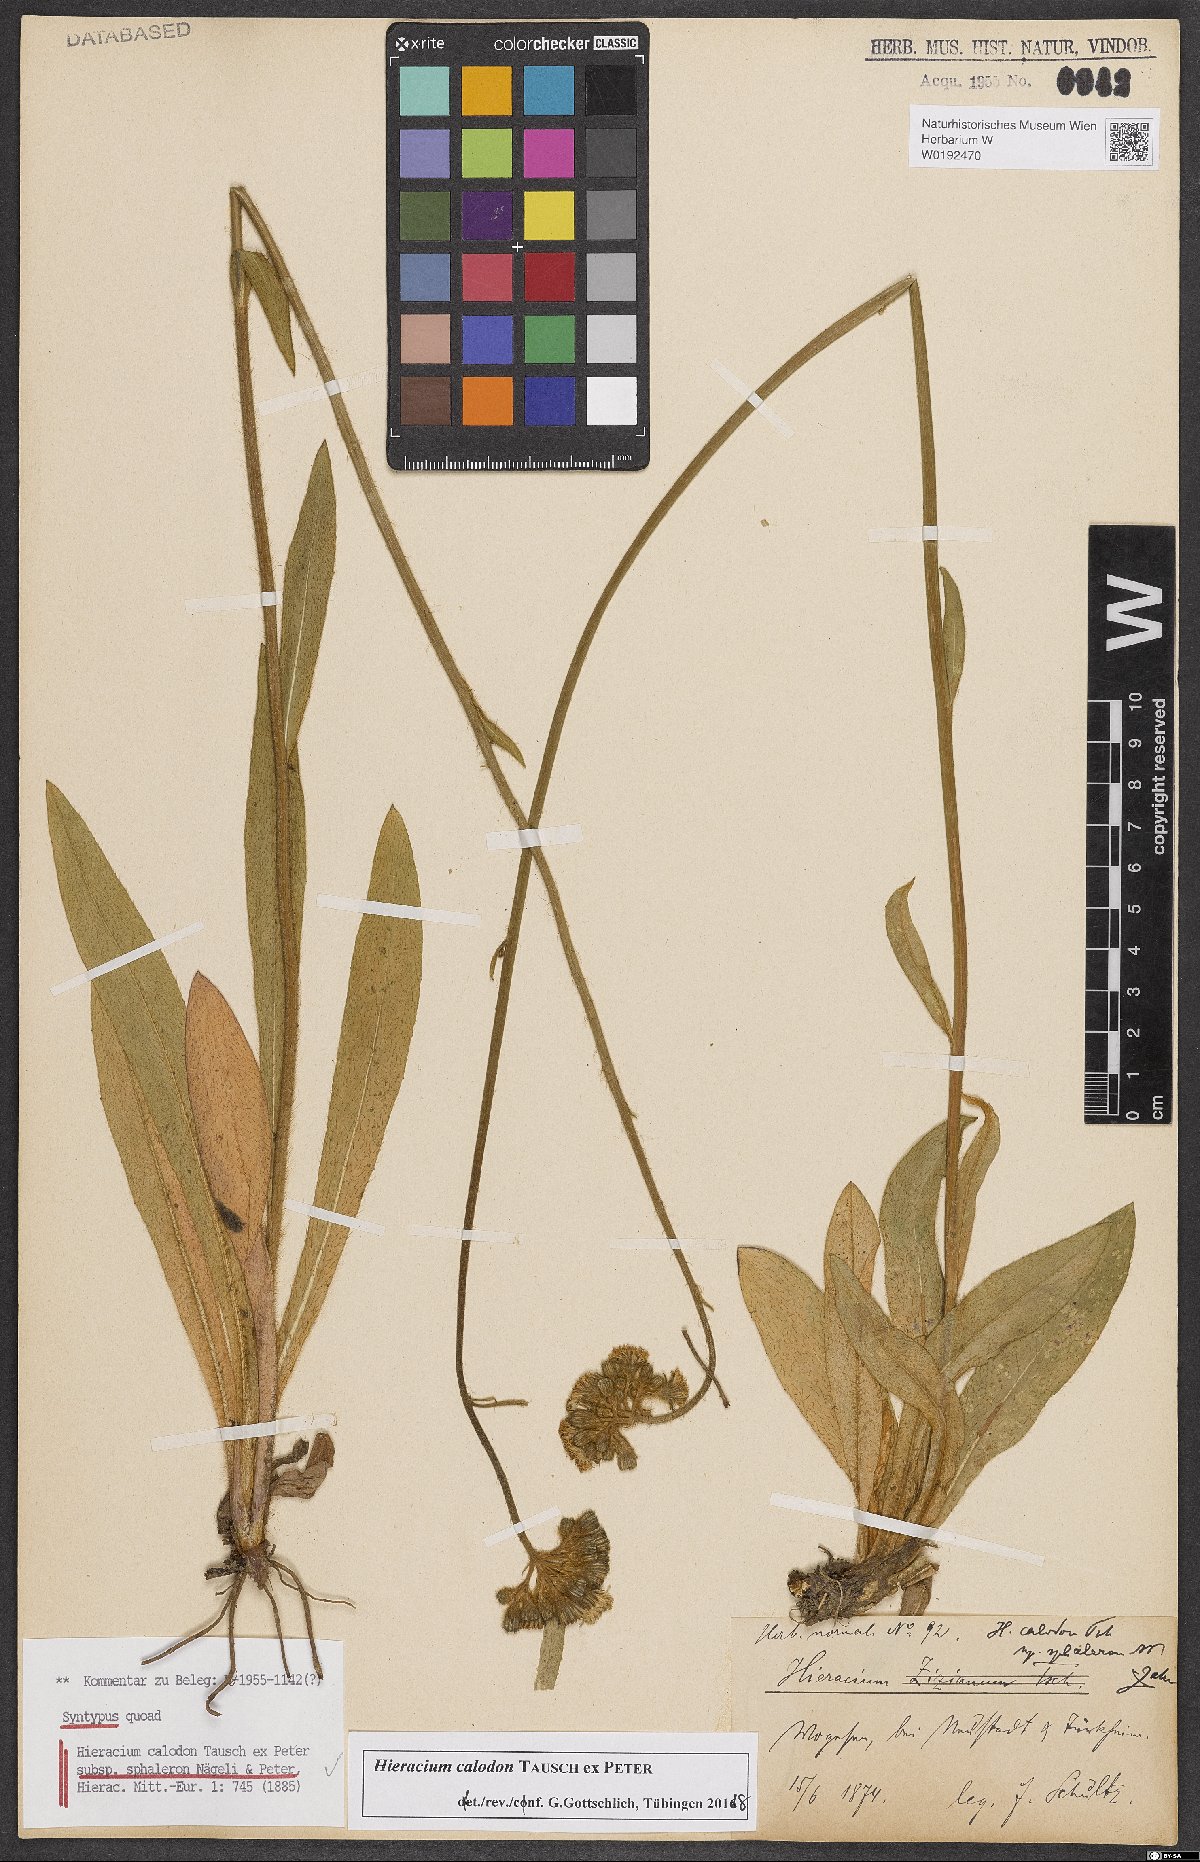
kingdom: Plantae
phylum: Tracheophyta
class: Magnoliopsida
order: Asterales
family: Asteraceae
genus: Pilosella
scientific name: Pilosella calodon
